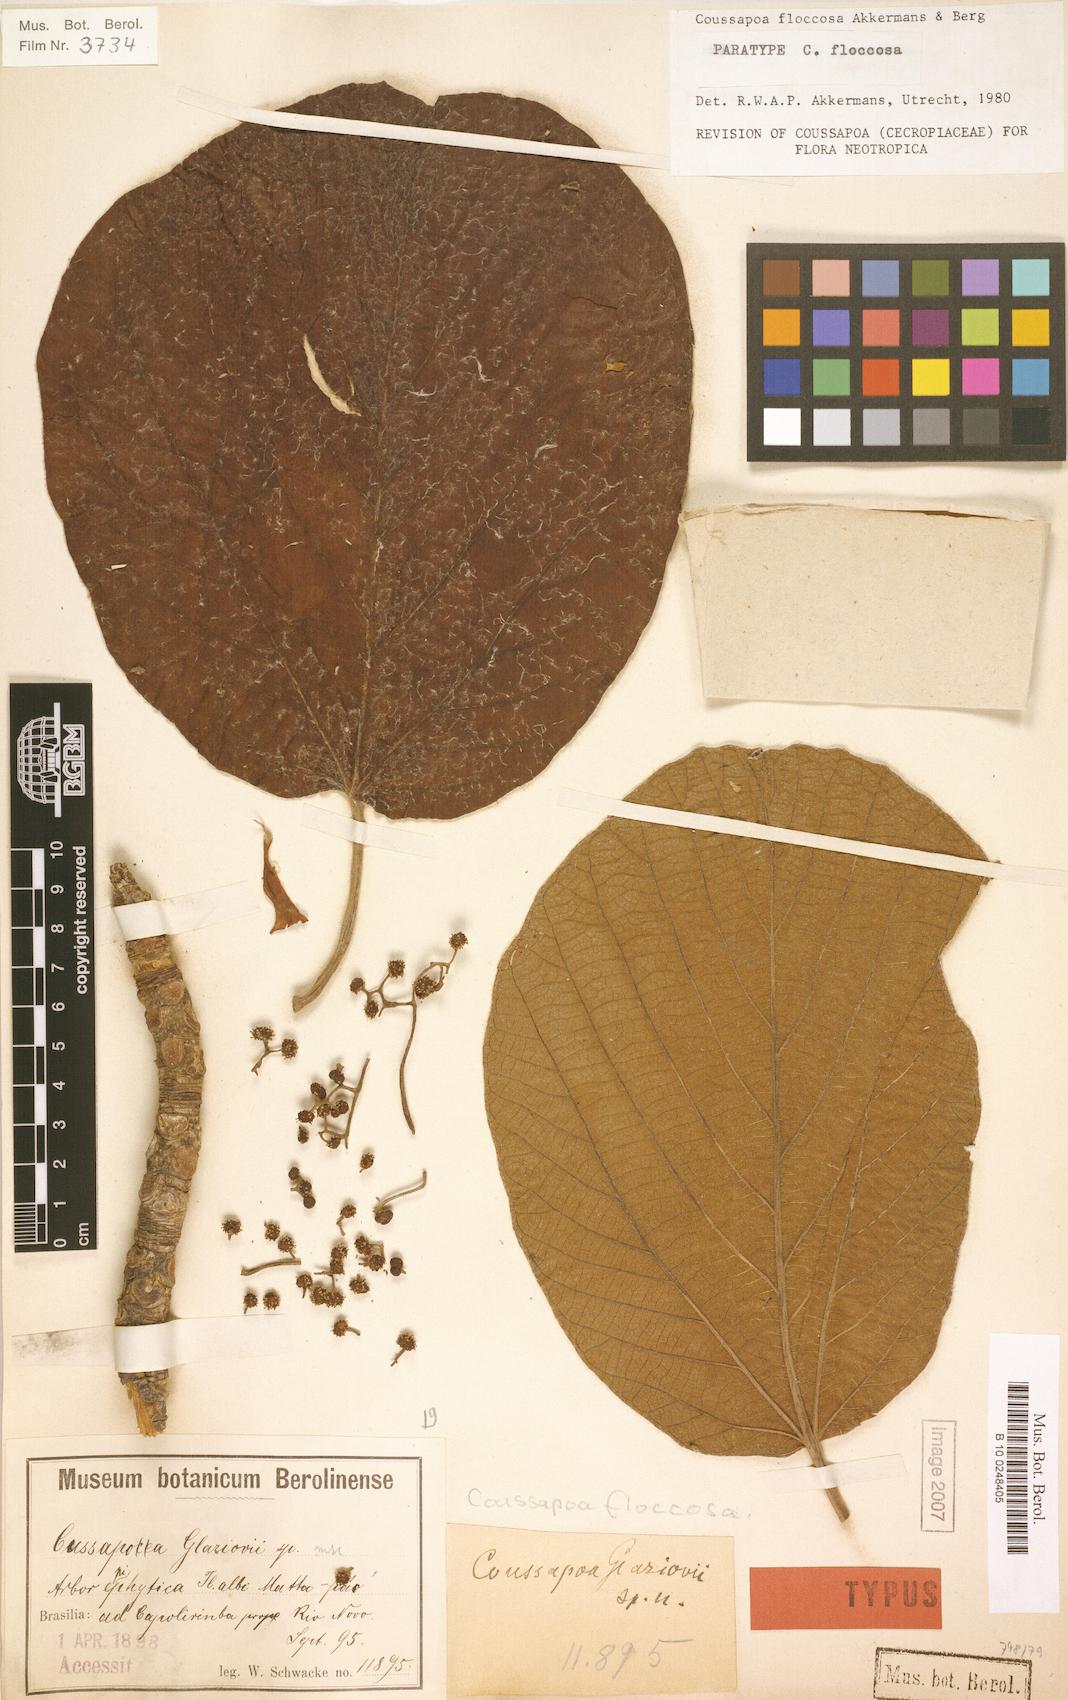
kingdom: Plantae
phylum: Tracheophyta
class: Magnoliopsida
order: Rosales
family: Urticaceae
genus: Coussapoa
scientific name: Coussapoa floccosa
